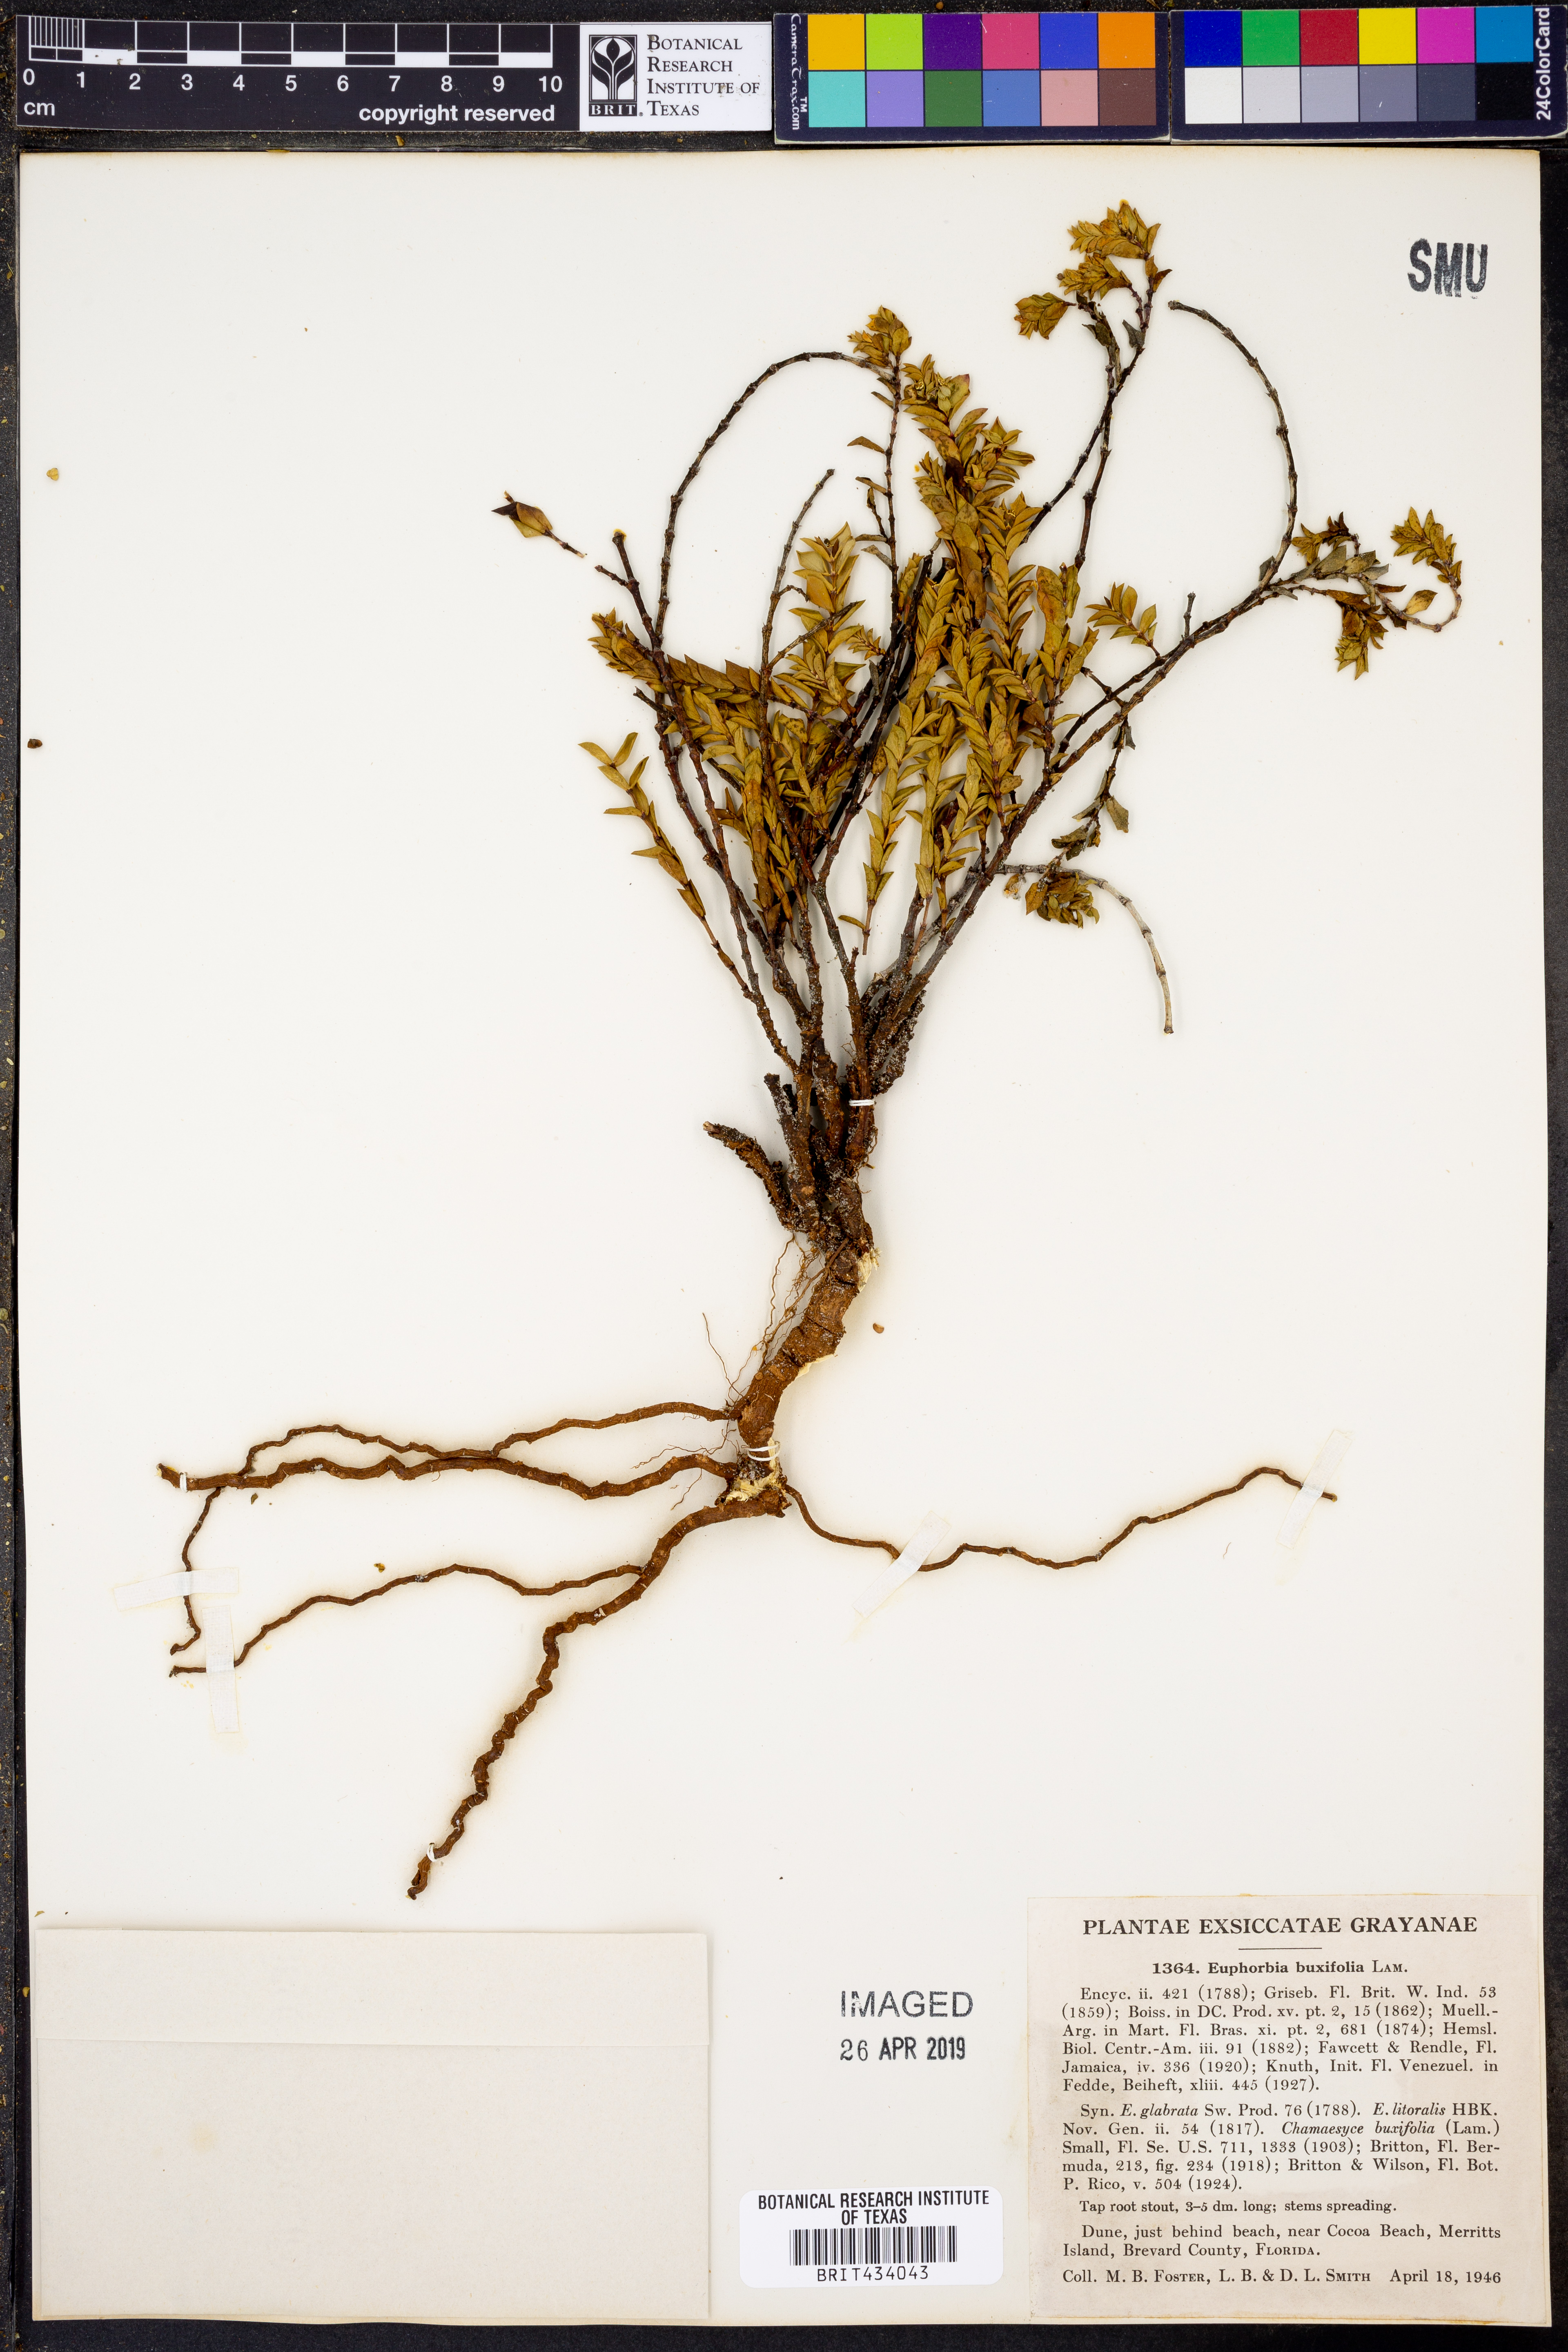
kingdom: Plantae
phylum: Tracheophyta
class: Magnoliopsida
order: Malpighiales
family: Euphorbiaceae
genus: Euphorbia
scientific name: Euphorbia mesembryanthemifolia
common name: Coastal beach sandmat
